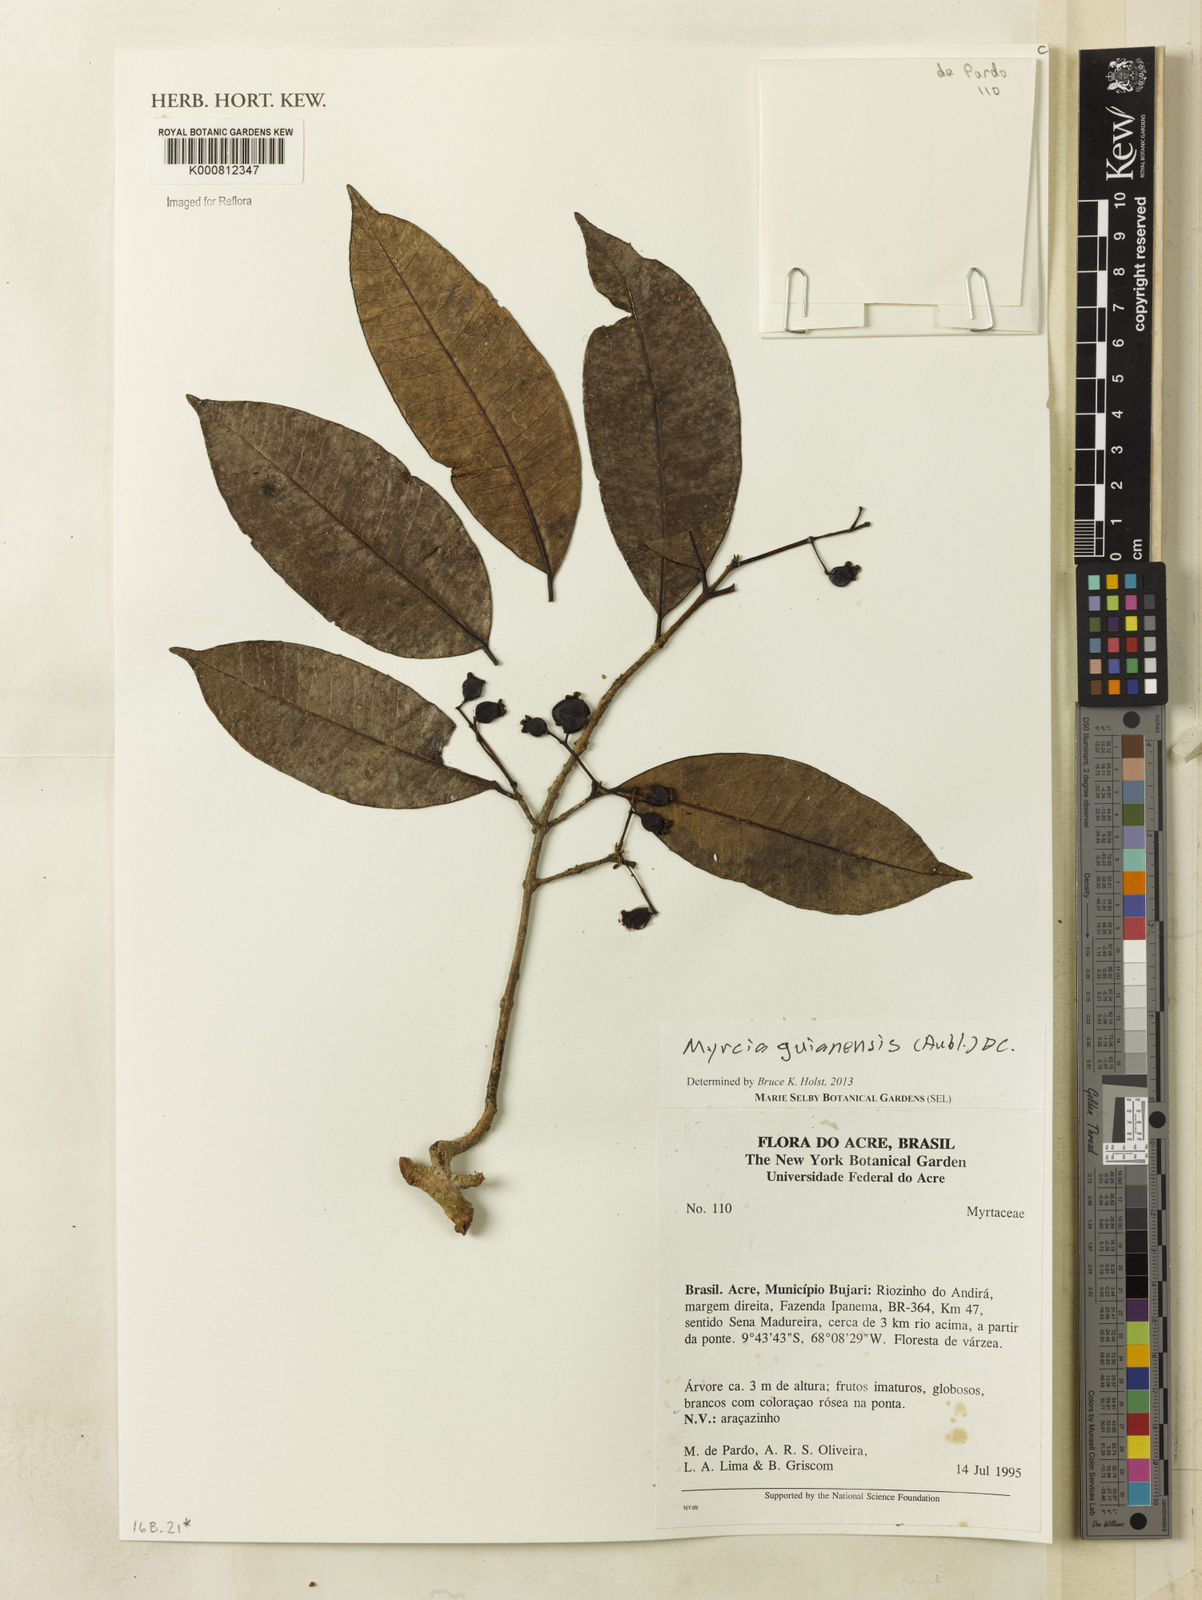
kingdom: Plantae
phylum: Tracheophyta
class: Magnoliopsida
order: Myrtales
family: Myrtaceae
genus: Myrcia
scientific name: Myrcia guianensis
